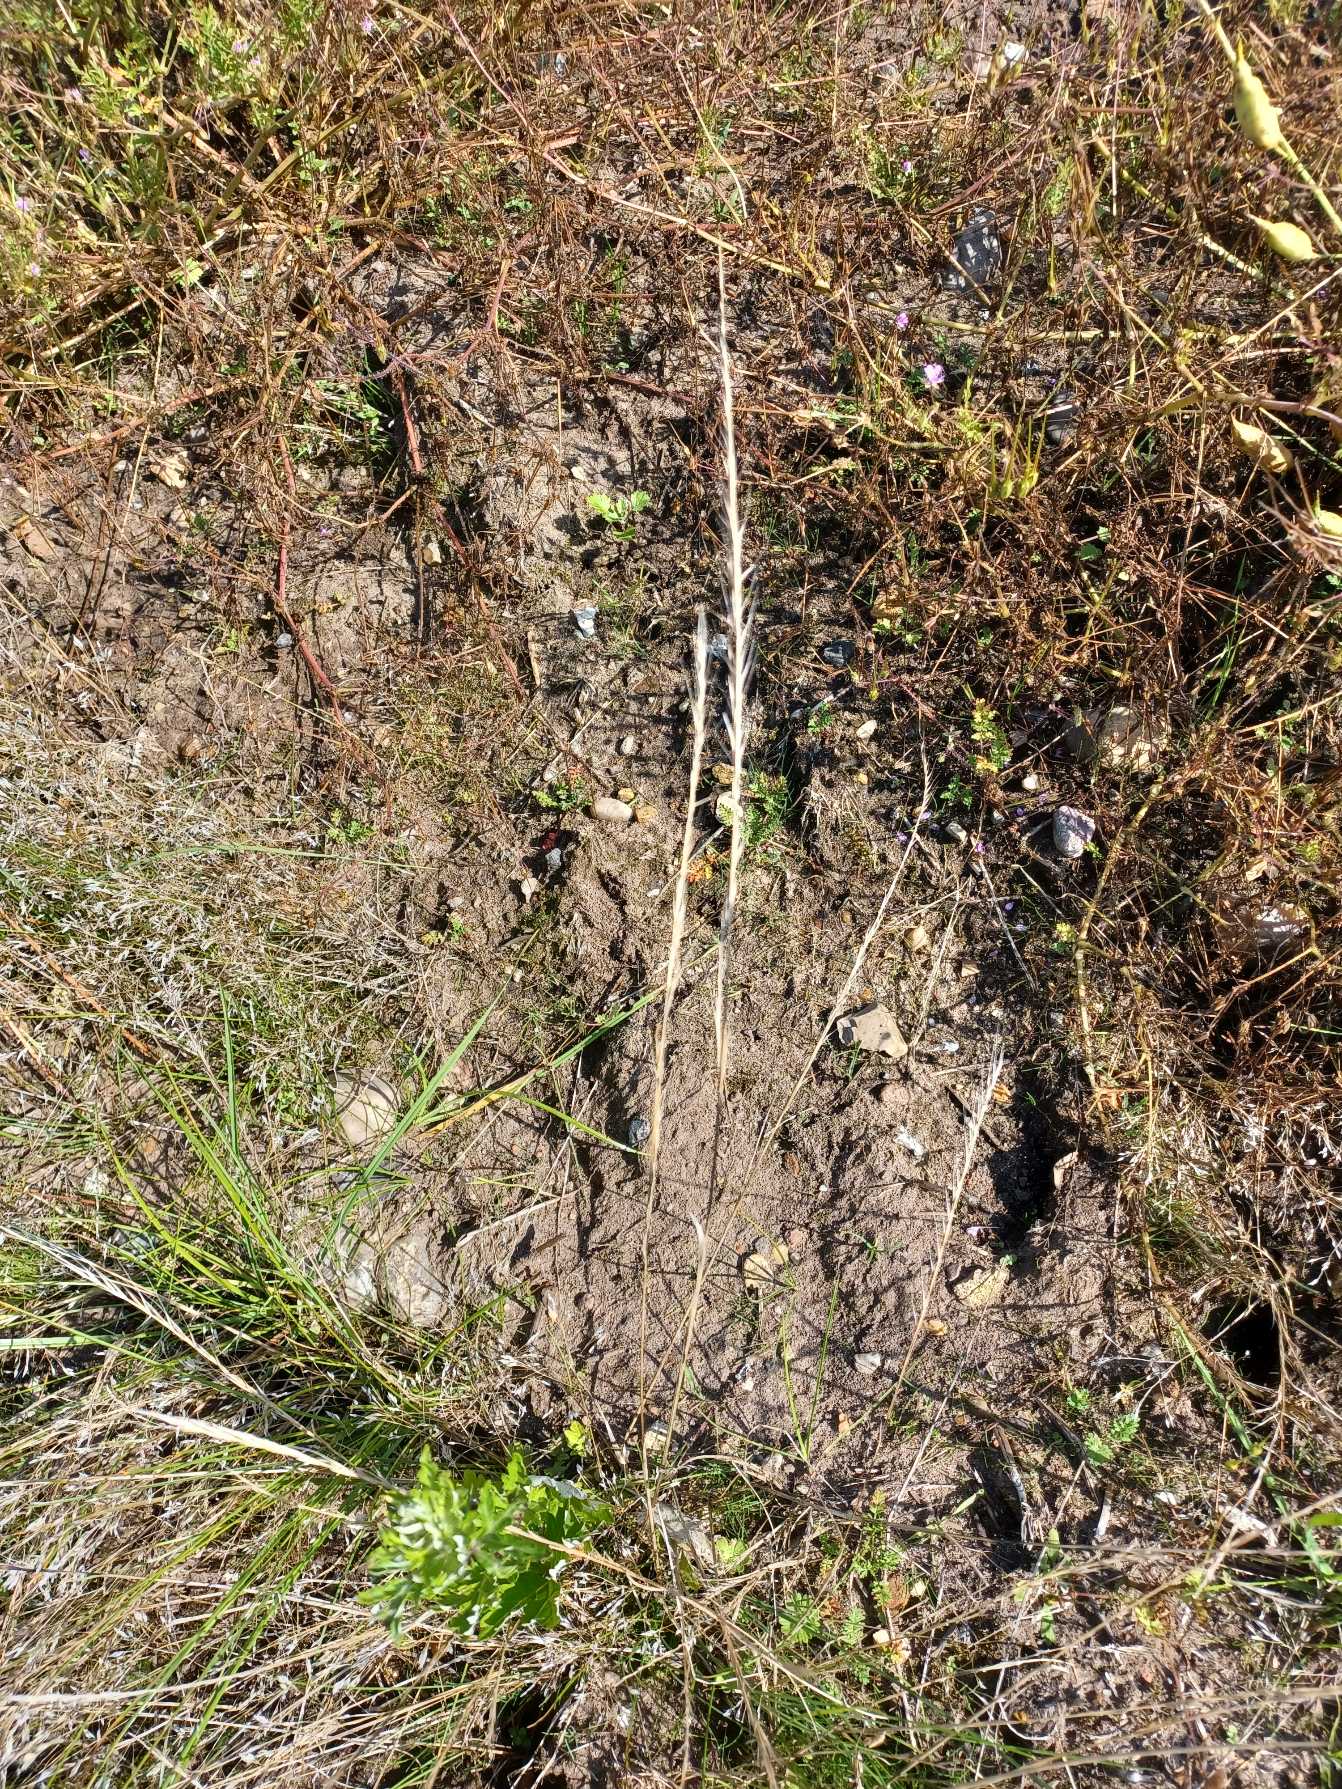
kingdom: Plantae
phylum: Tracheophyta
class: Liliopsida
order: Poales
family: Poaceae
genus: Festuca
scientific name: Festuca myuros
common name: Stor væselhale
